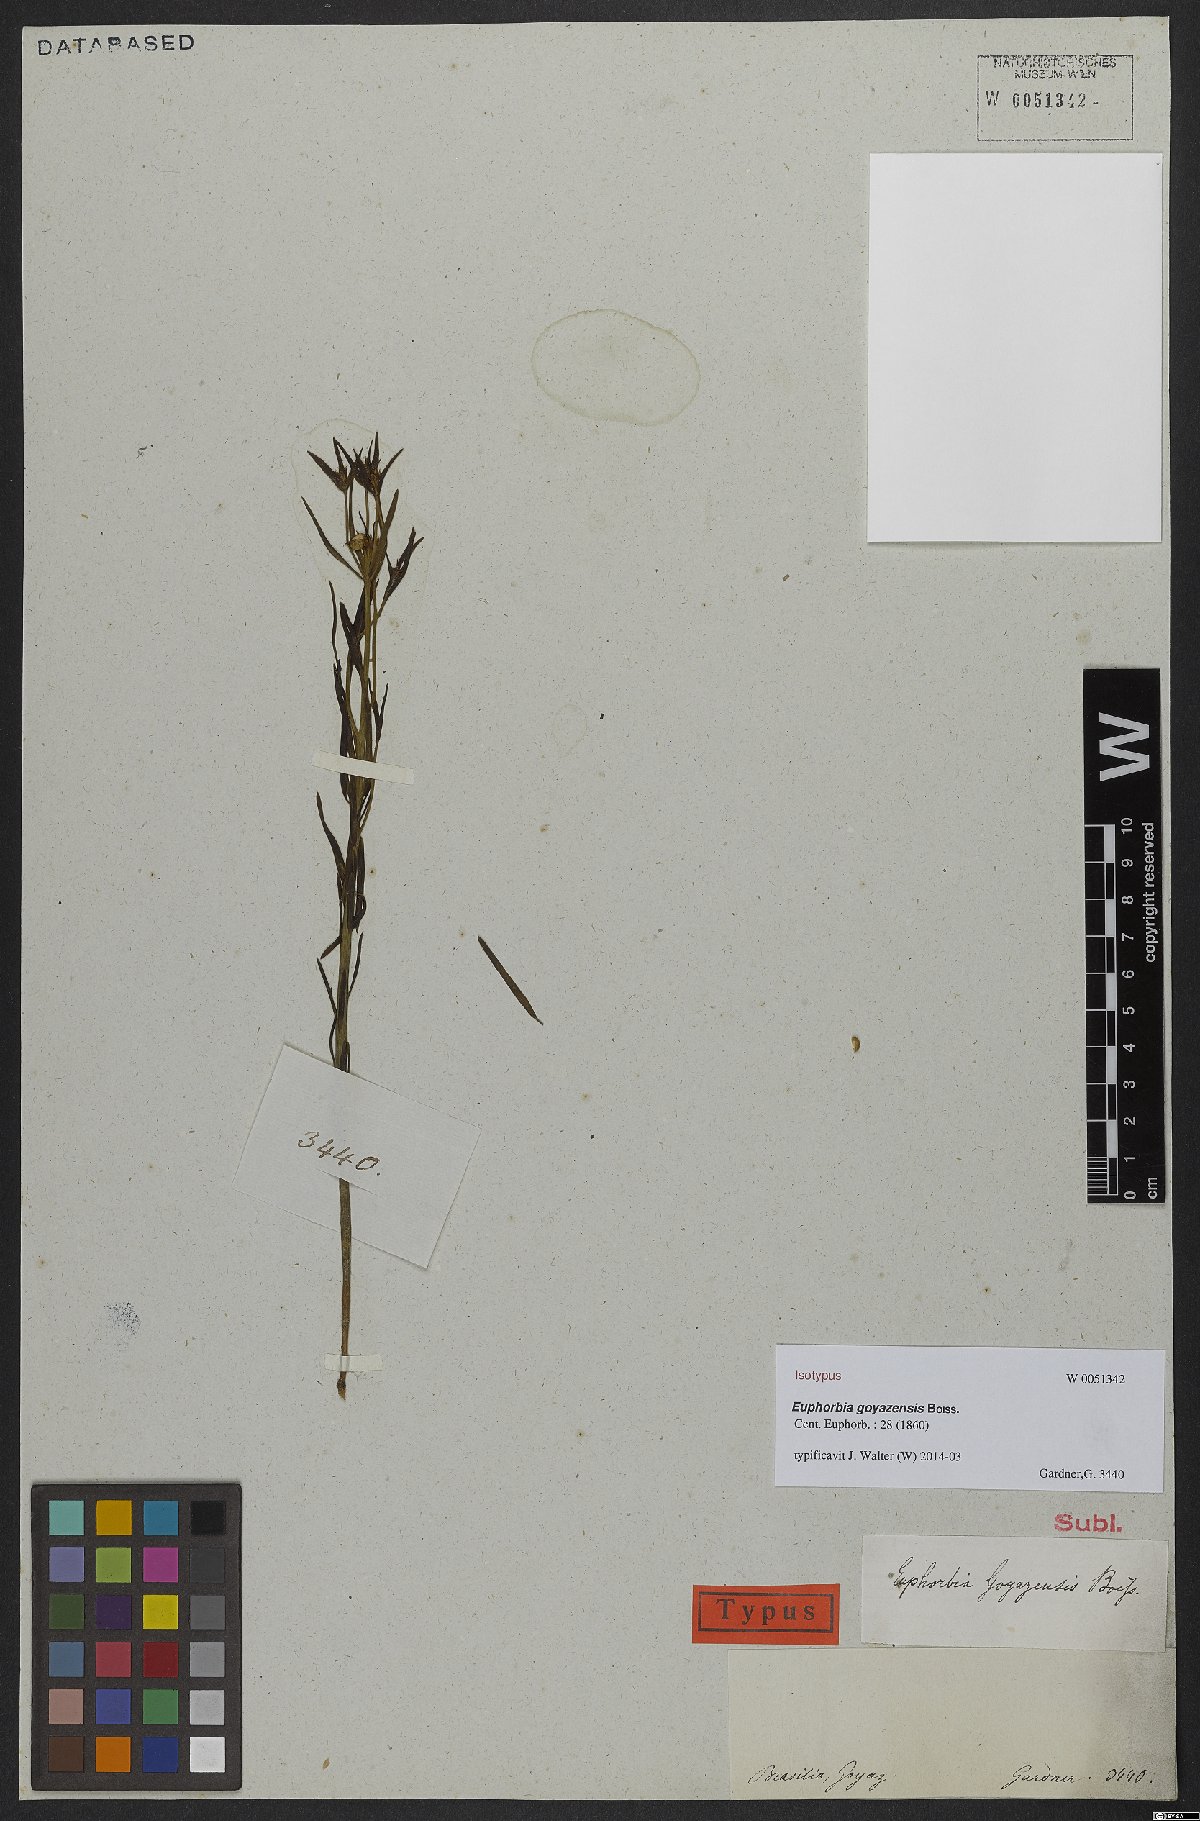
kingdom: Plantae
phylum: Tracheophyta
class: Magnoliopsida
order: Malpighiales
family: Euphorbiaceae
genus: Euphorbia
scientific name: Euphorbia goyazensis
